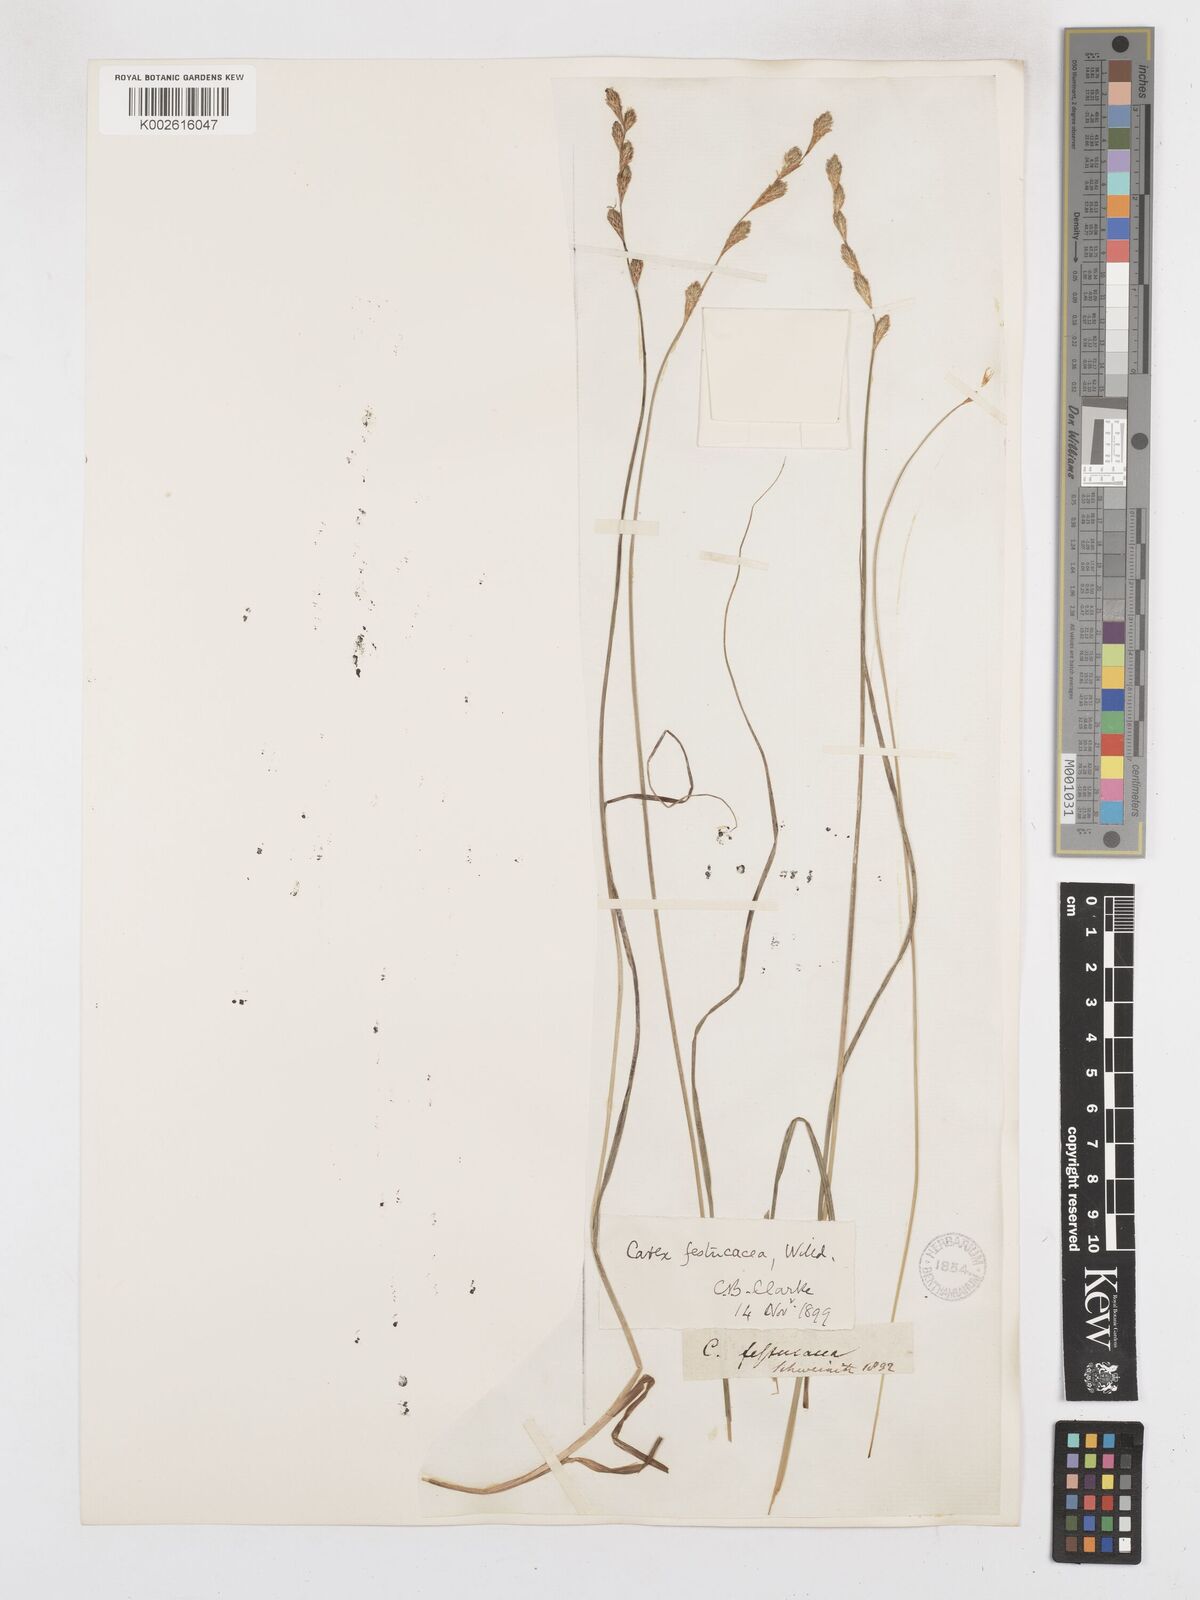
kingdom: Plantae
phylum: Tracheophyta
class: Liliopsida
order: Poales
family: Cyperaceae
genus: Carex
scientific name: Carex festucacea
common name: Fescue oval sedge
